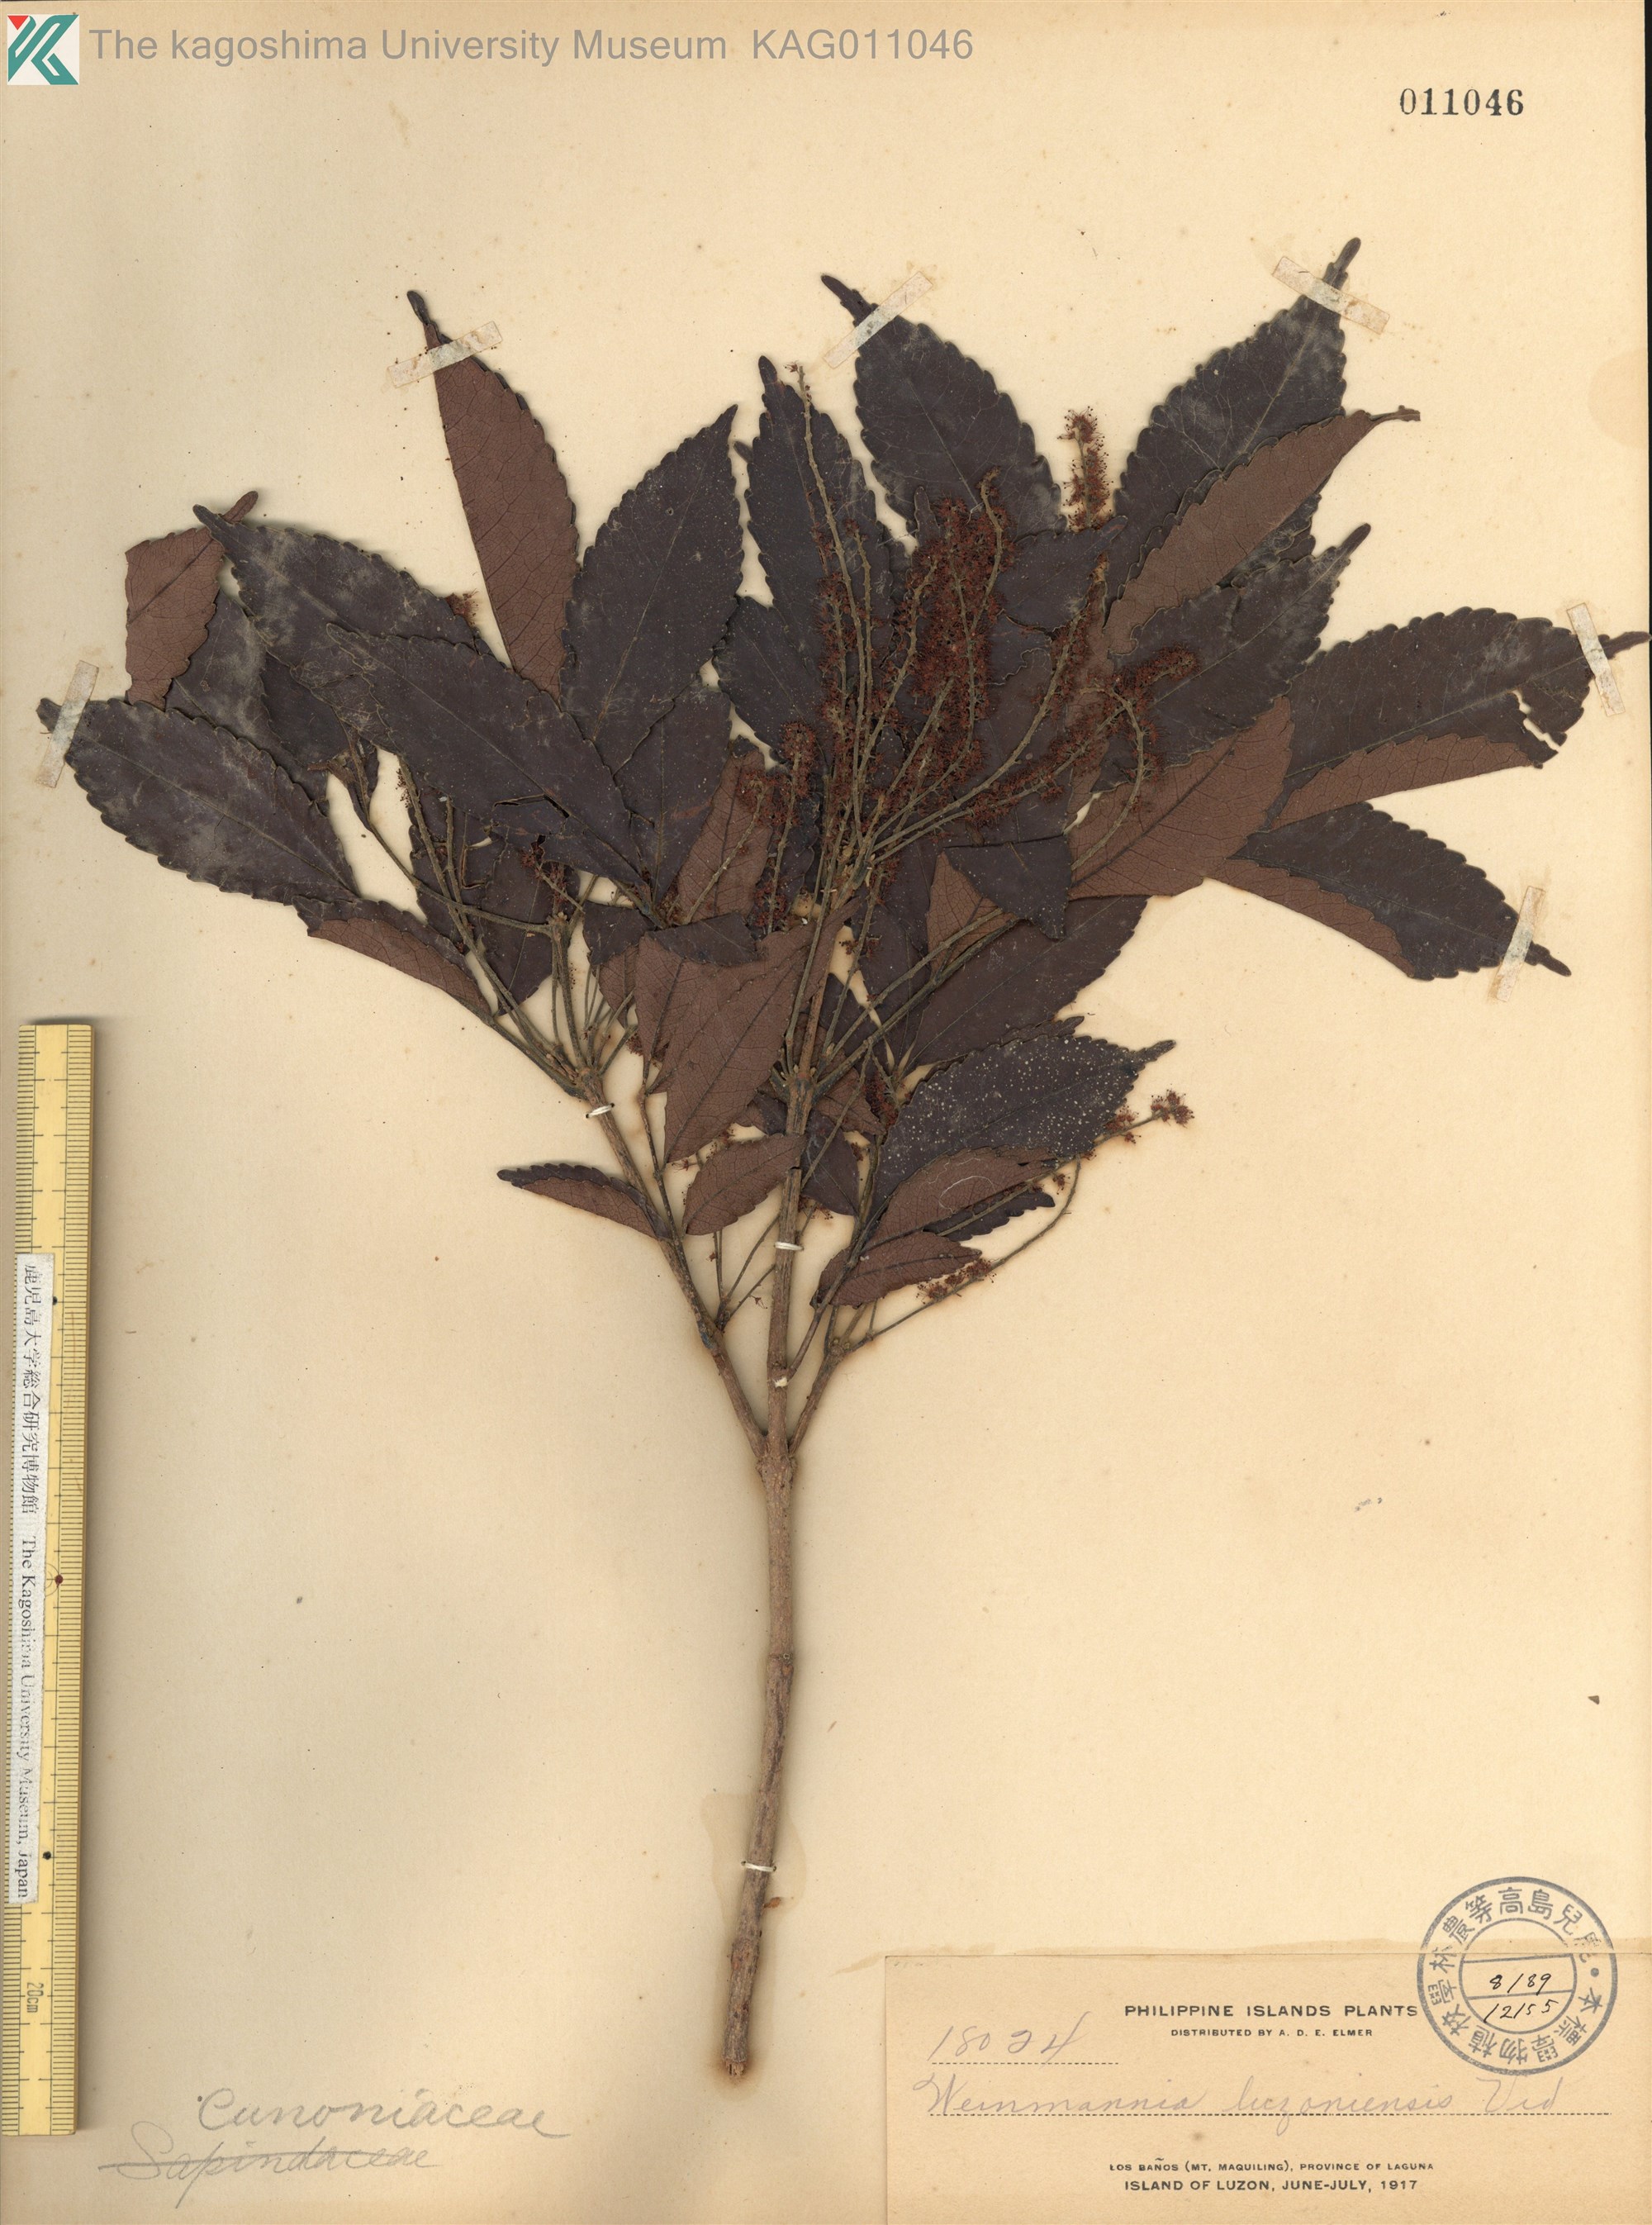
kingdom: Plantae
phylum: Tracheophyta
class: Magnoliopsida
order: Oxalidales
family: Cunoniaceae
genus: Weinmannia
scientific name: Weinmannia
